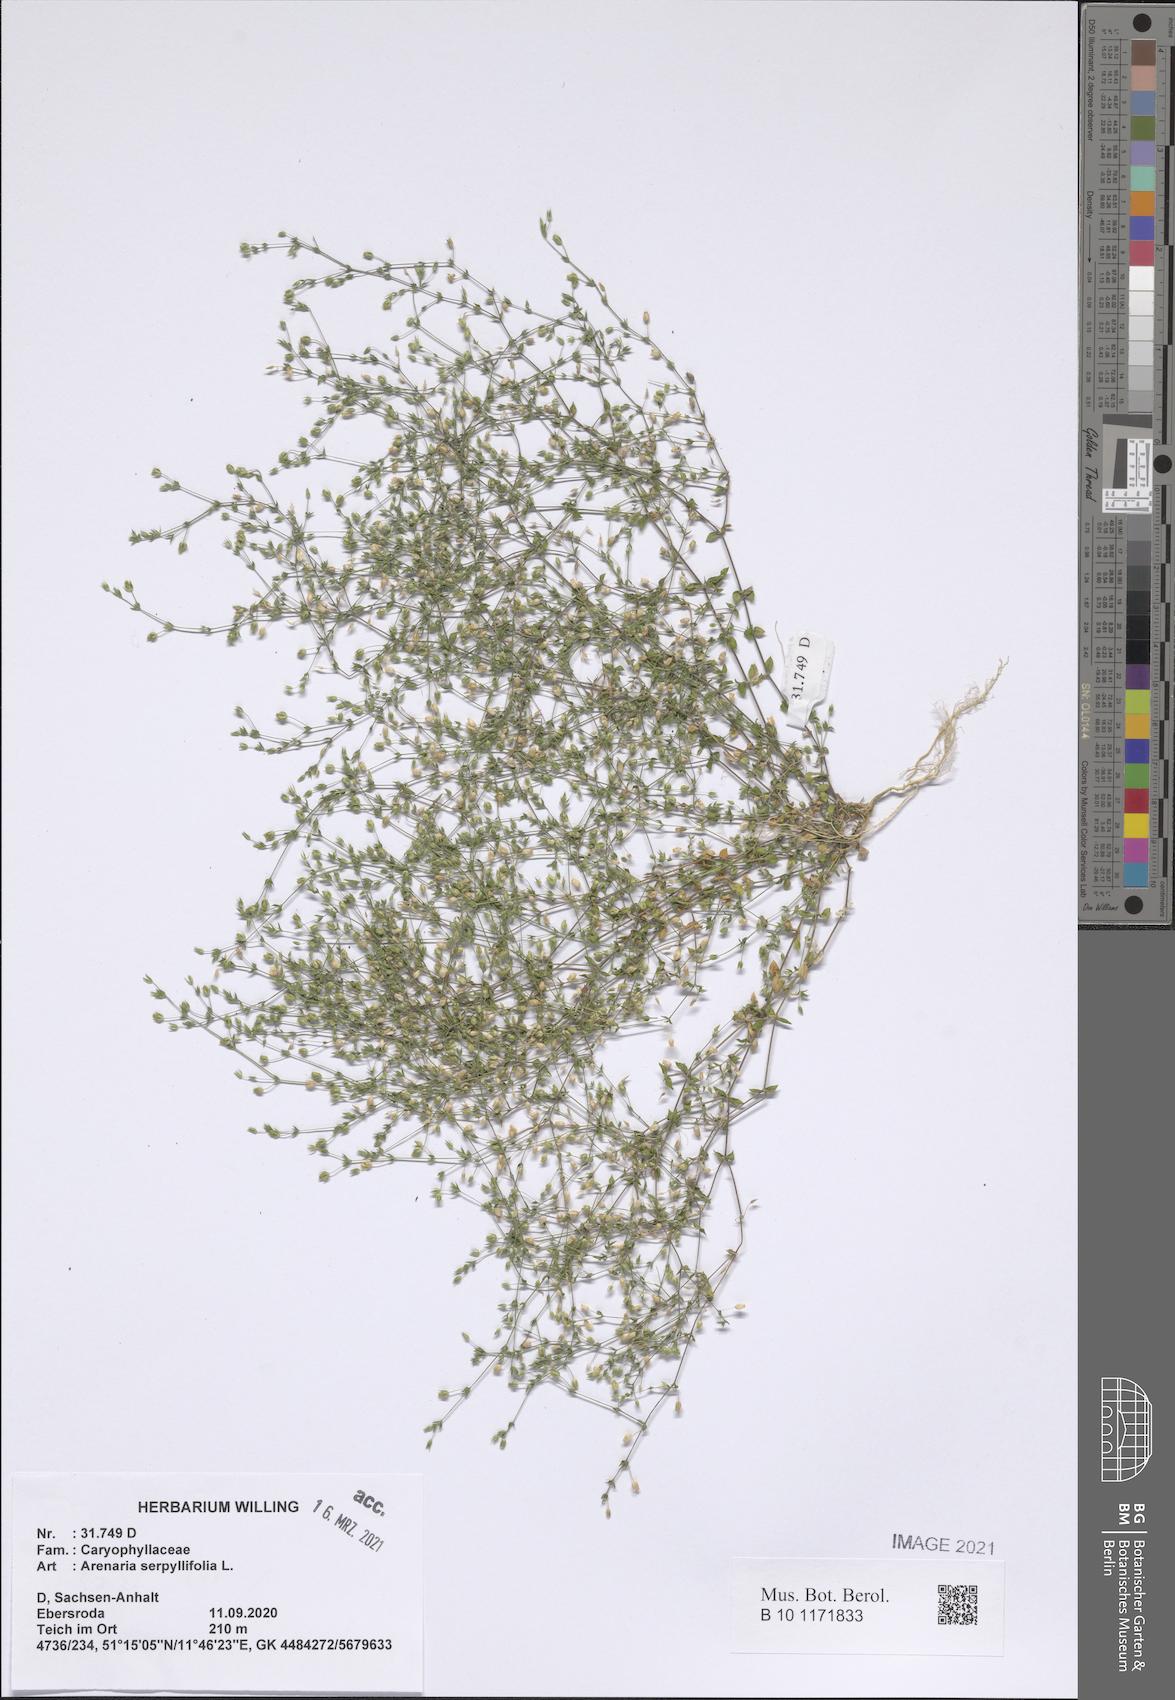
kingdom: Plantae
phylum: Tracheophyta
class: Magnoliopsida
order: Caryophyllales
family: Caryophyllaceae
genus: Arenaria
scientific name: Arenaria serpyllifolia
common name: Thyme-leaved sandwort
